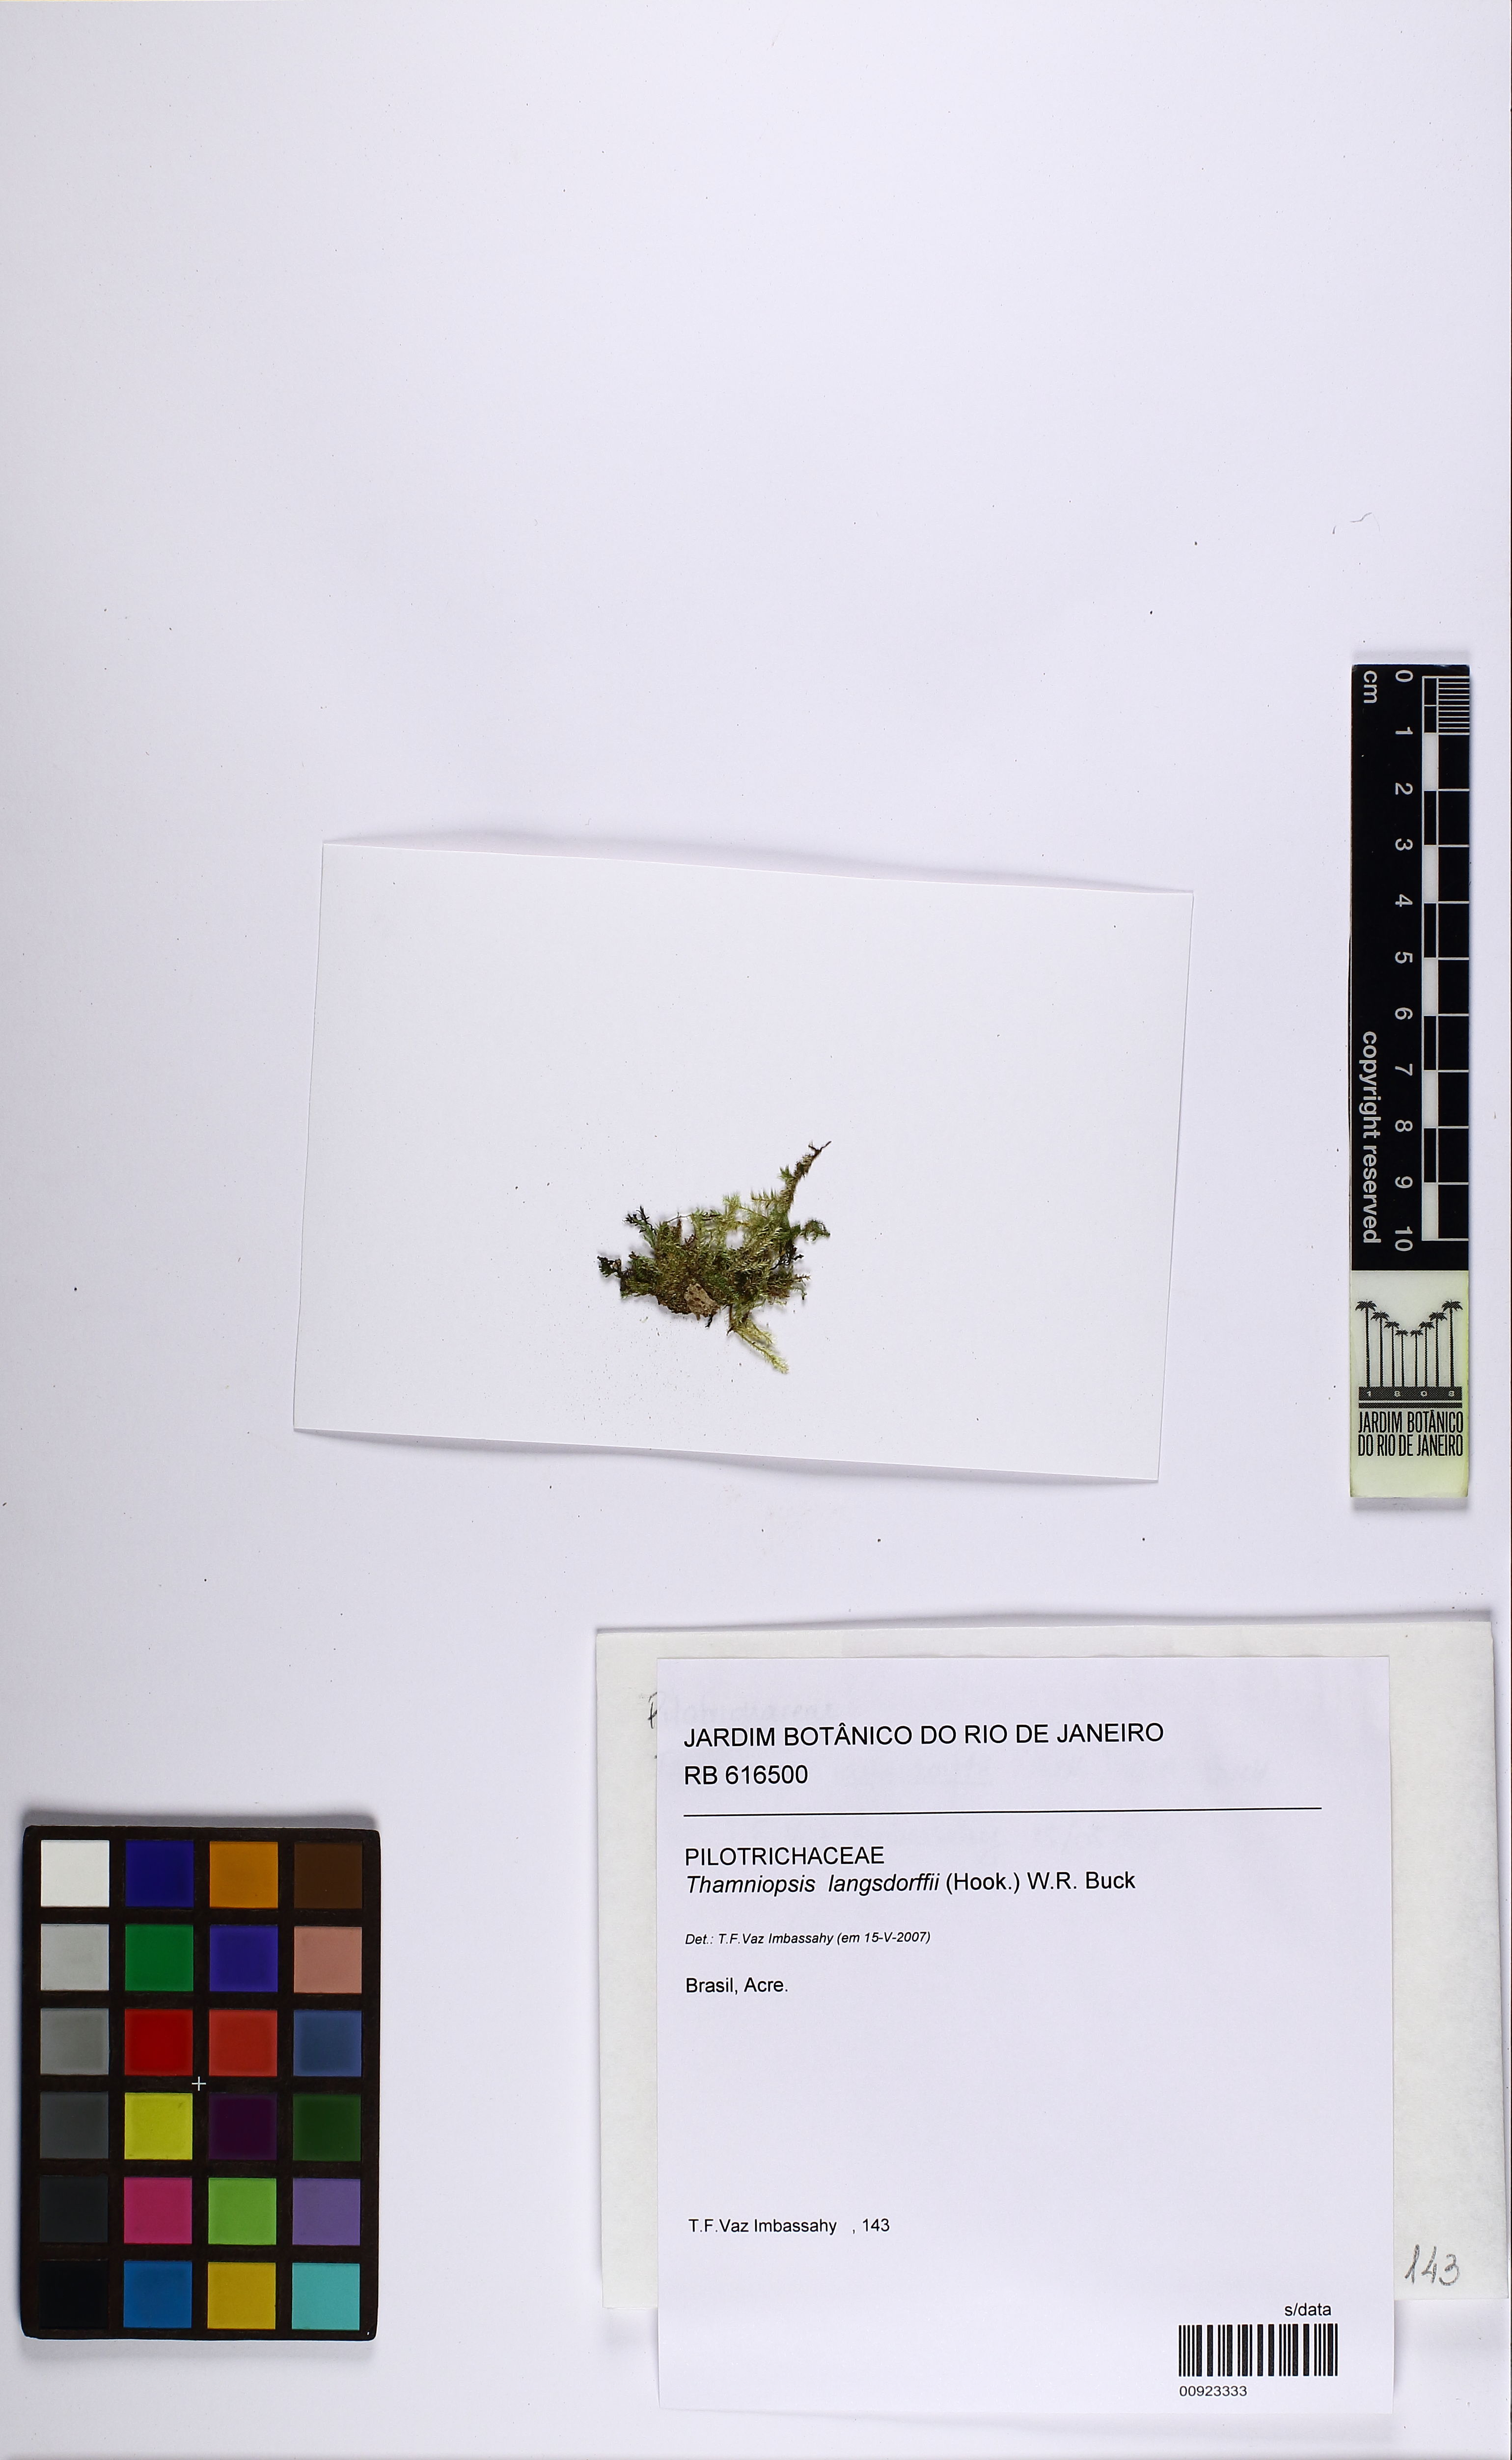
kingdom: Plantae
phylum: Bryophyta
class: Bryopsida
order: Hookeriales
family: Pilotrichaceae
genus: Thamniopsis
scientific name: Thamniopsis langsdorffii
